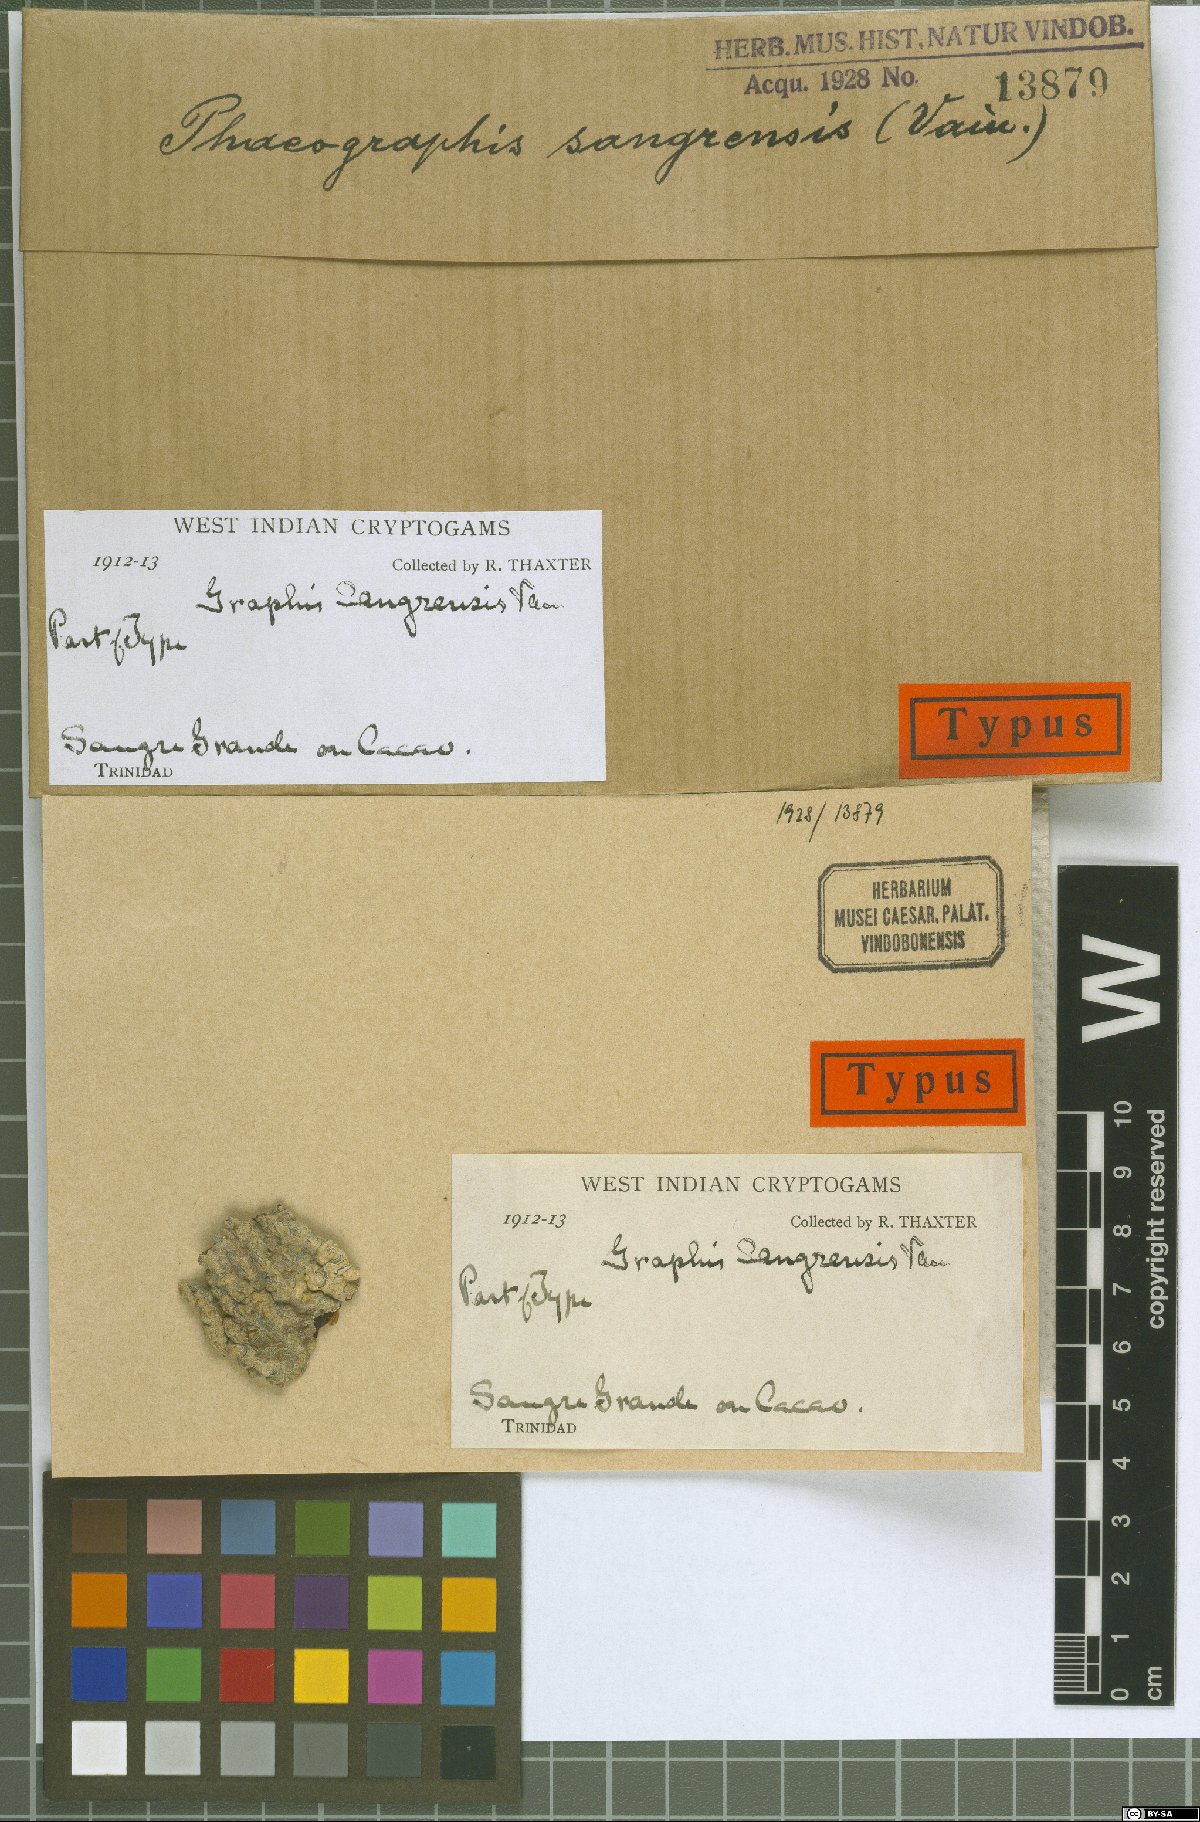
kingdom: Fungi
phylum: Ascomycota
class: Lecanoromycetes
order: Ostropales
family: Graphidaceae
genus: Graphis
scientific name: Graphis
